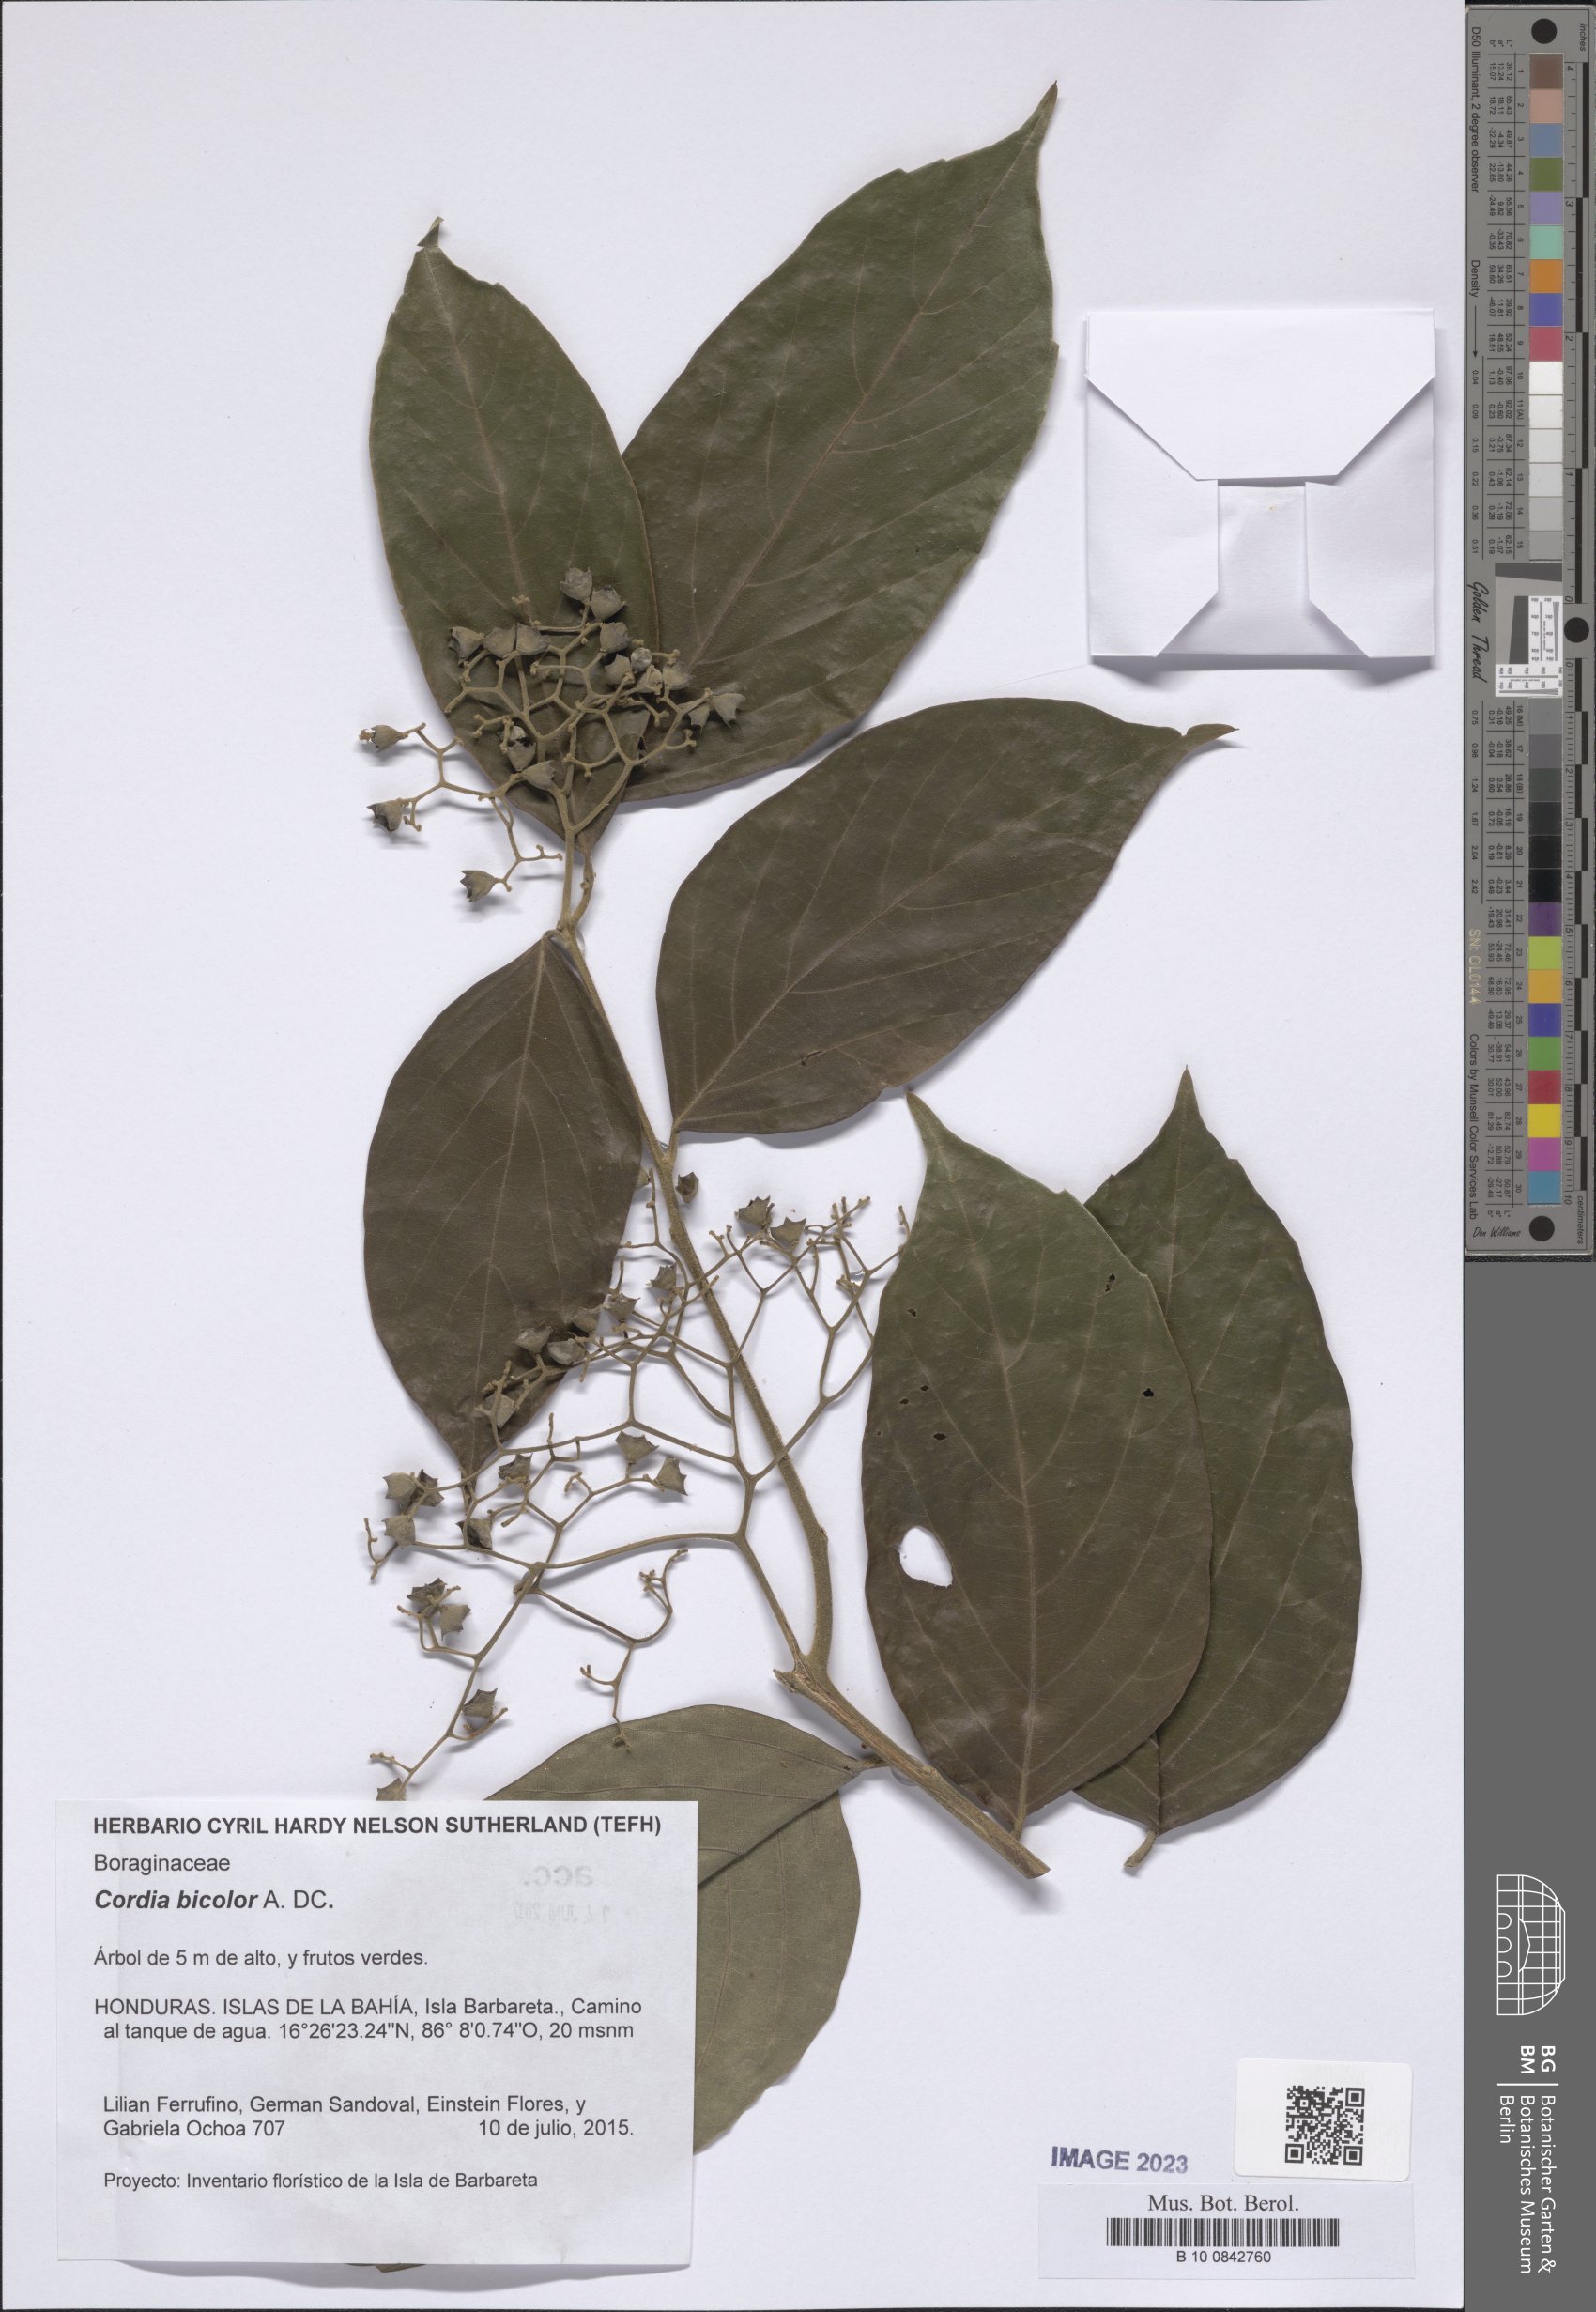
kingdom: Plantae
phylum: Tracheophyta
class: Magnoliopsida
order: Boraginales
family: Cordiaceae
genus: Cordia
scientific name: Cordia bicolor
